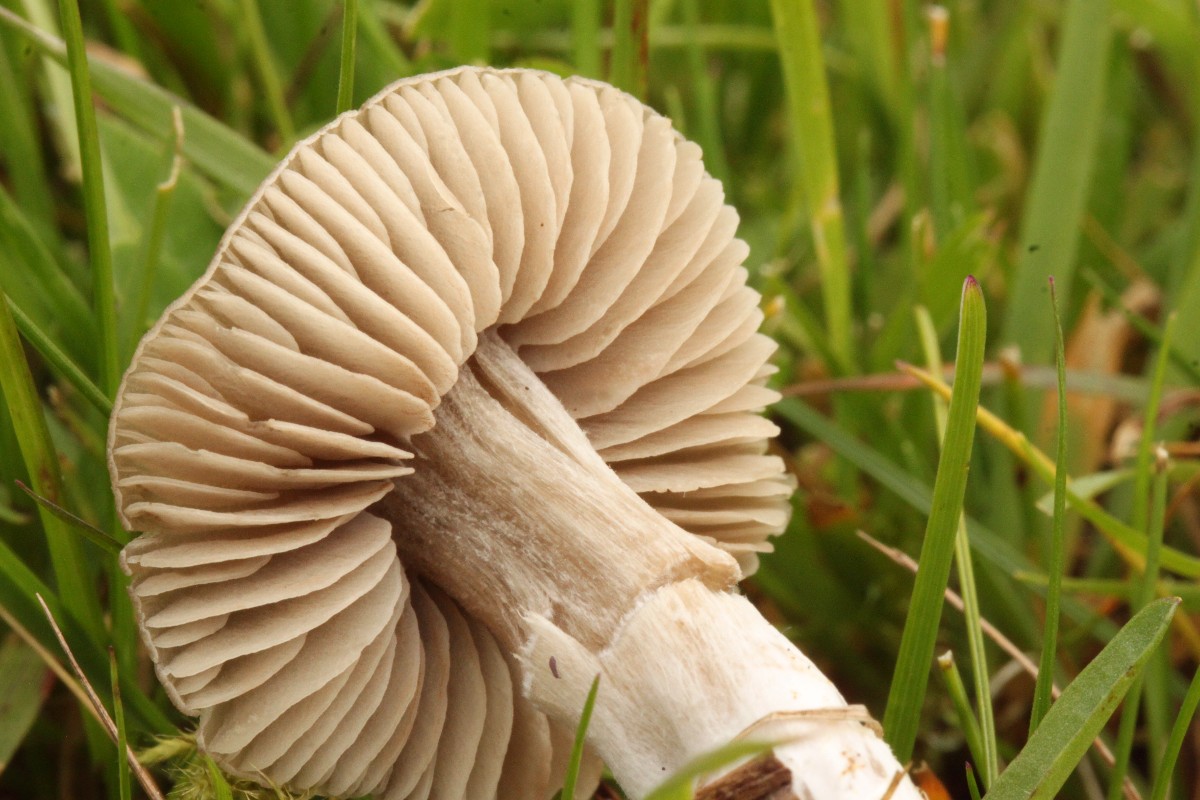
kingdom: Fungi
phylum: Basidiomycota
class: Agaricomycetes
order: Agaricales
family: Entolomataceae
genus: Entoloma
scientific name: Entoloma ameides
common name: sødlig rødblad
